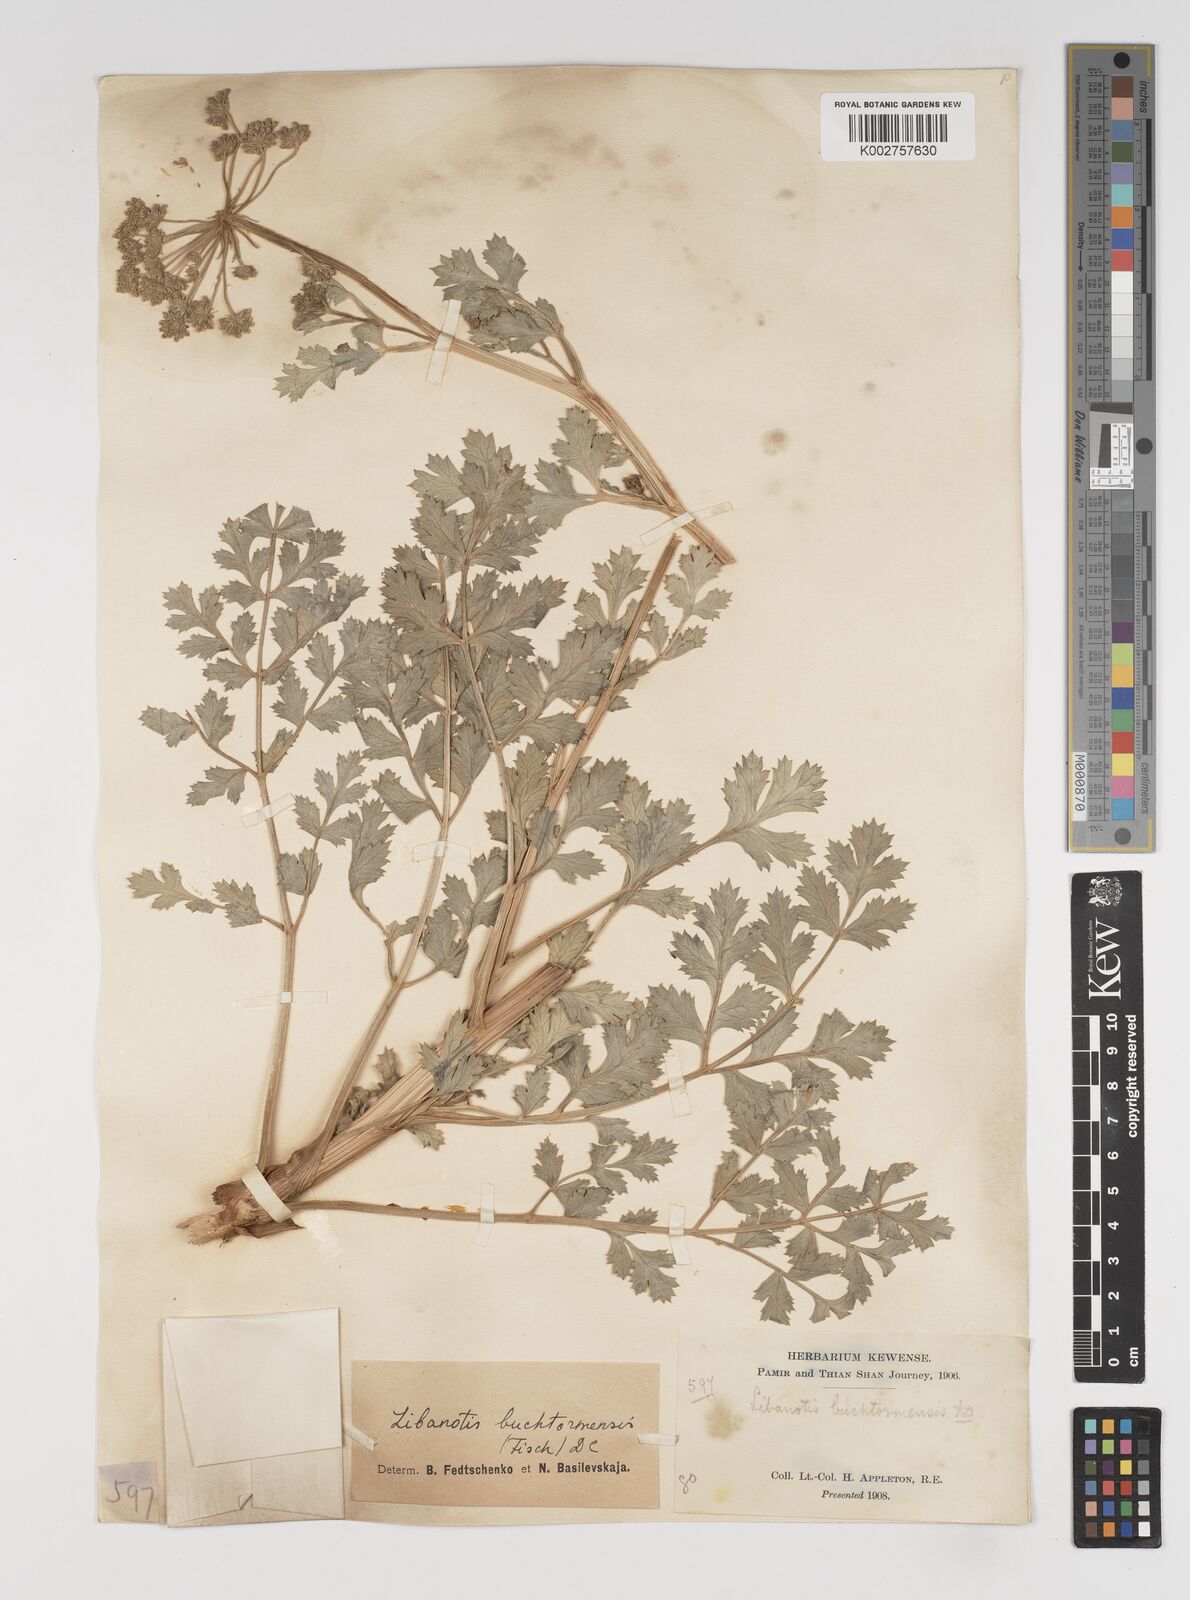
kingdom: Plantae
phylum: Tracheophyta
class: Magnoliopsida
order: Apiales
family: Apiaceae
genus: Seseli
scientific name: Seseli buchtormense
